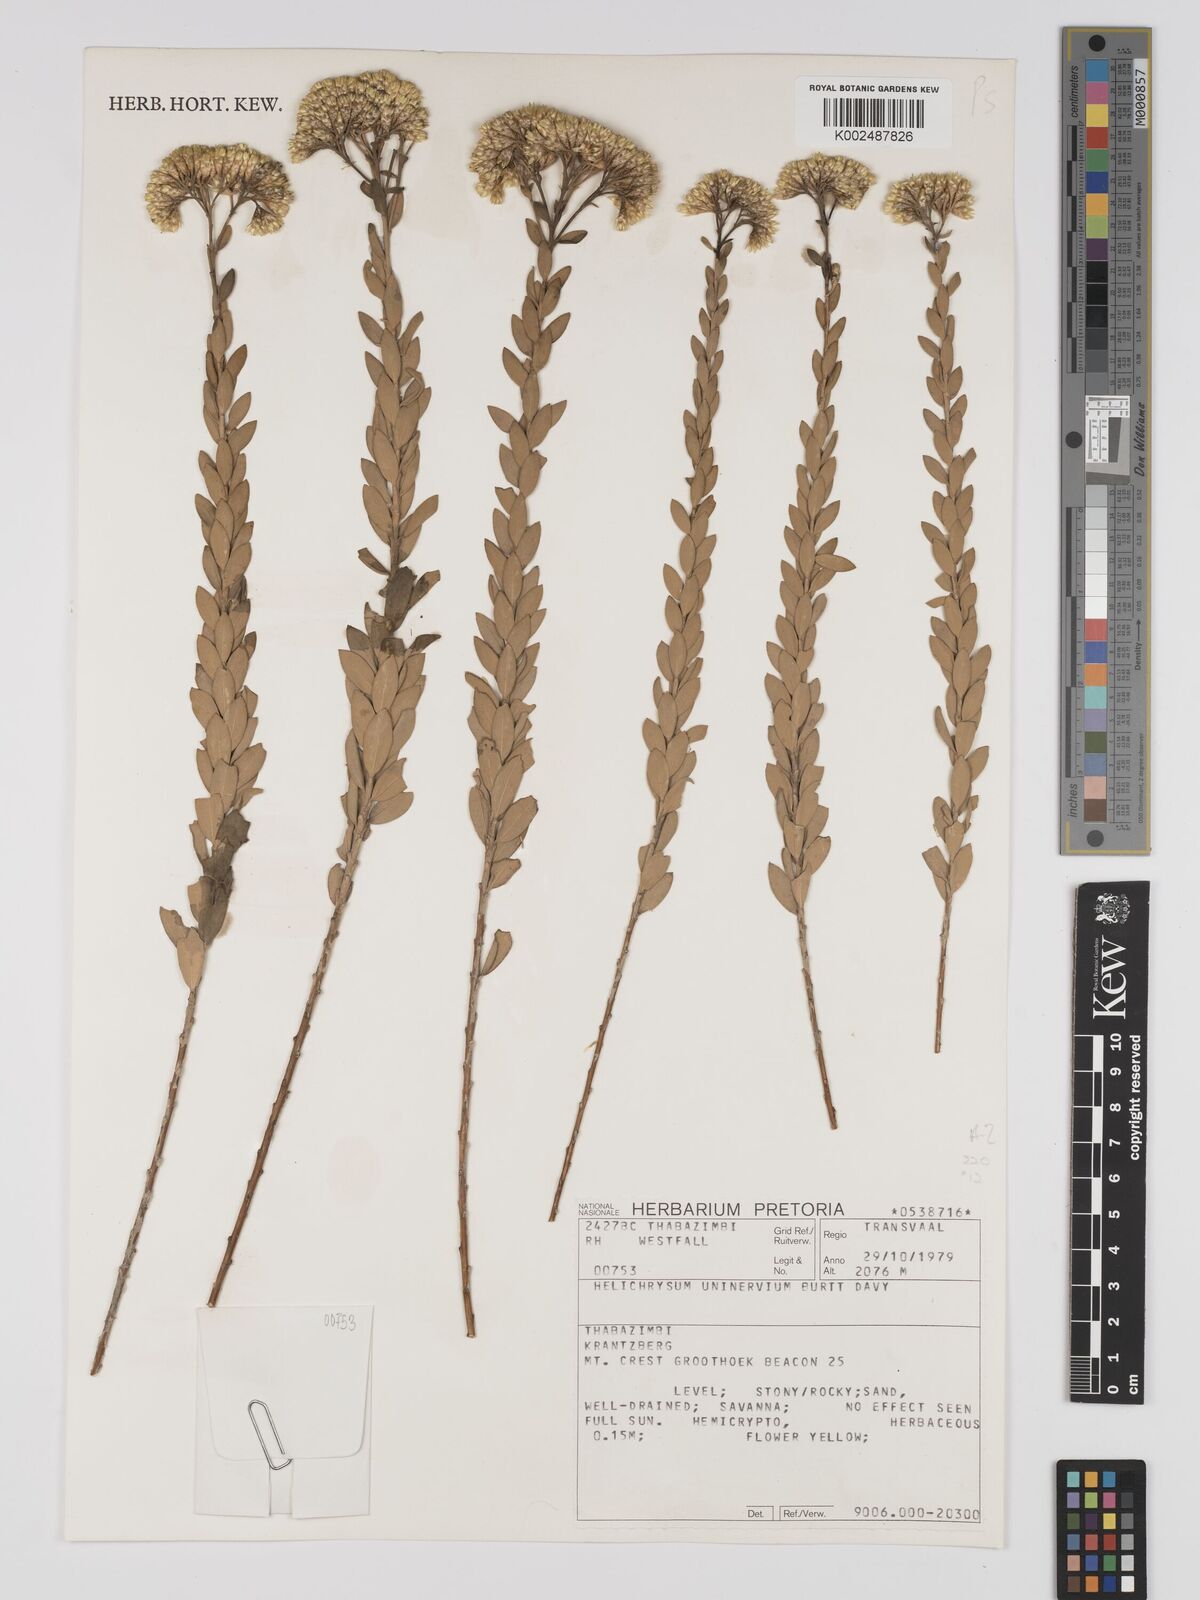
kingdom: Plantae
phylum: Tracheophyta
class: Magnoliopsida
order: Asterales
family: Asteraceae
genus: Helichrysum
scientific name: Helichrysum uninervium
